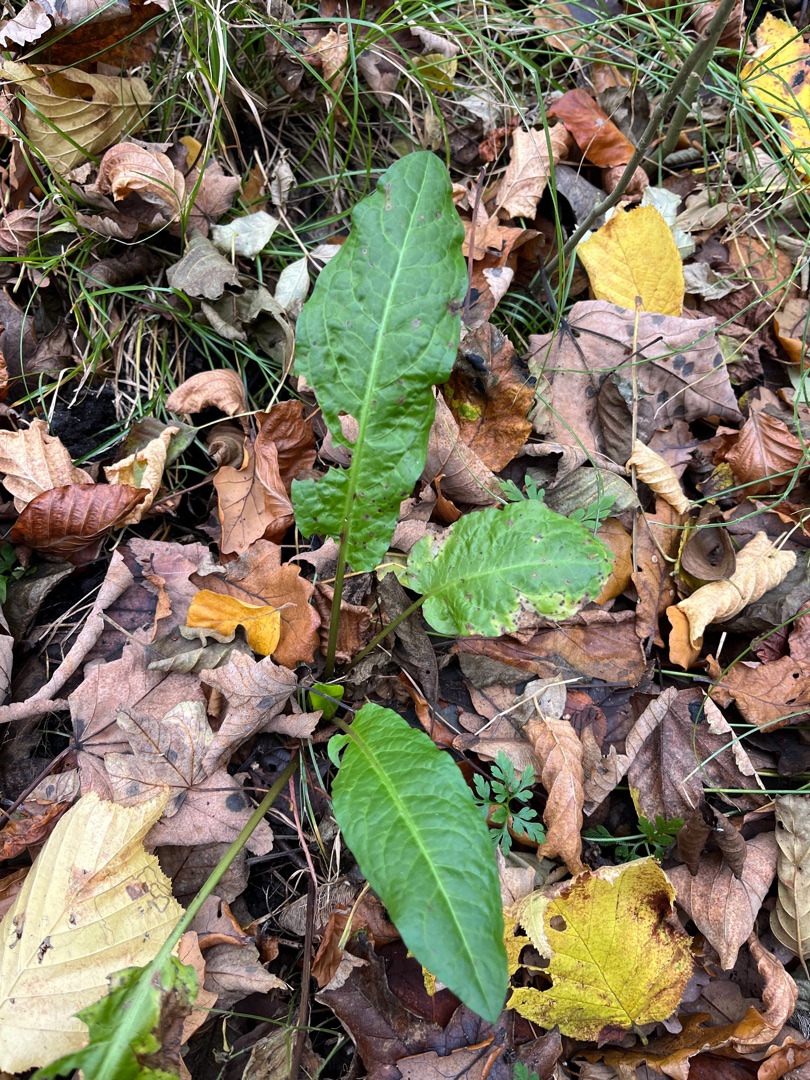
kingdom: Plantae
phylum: Tracheophyta
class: Magnoliopsida
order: Caryophyllales
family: Polygonaceae
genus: Rumex
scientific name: Rumex sanguineus
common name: Skov-skræppe
